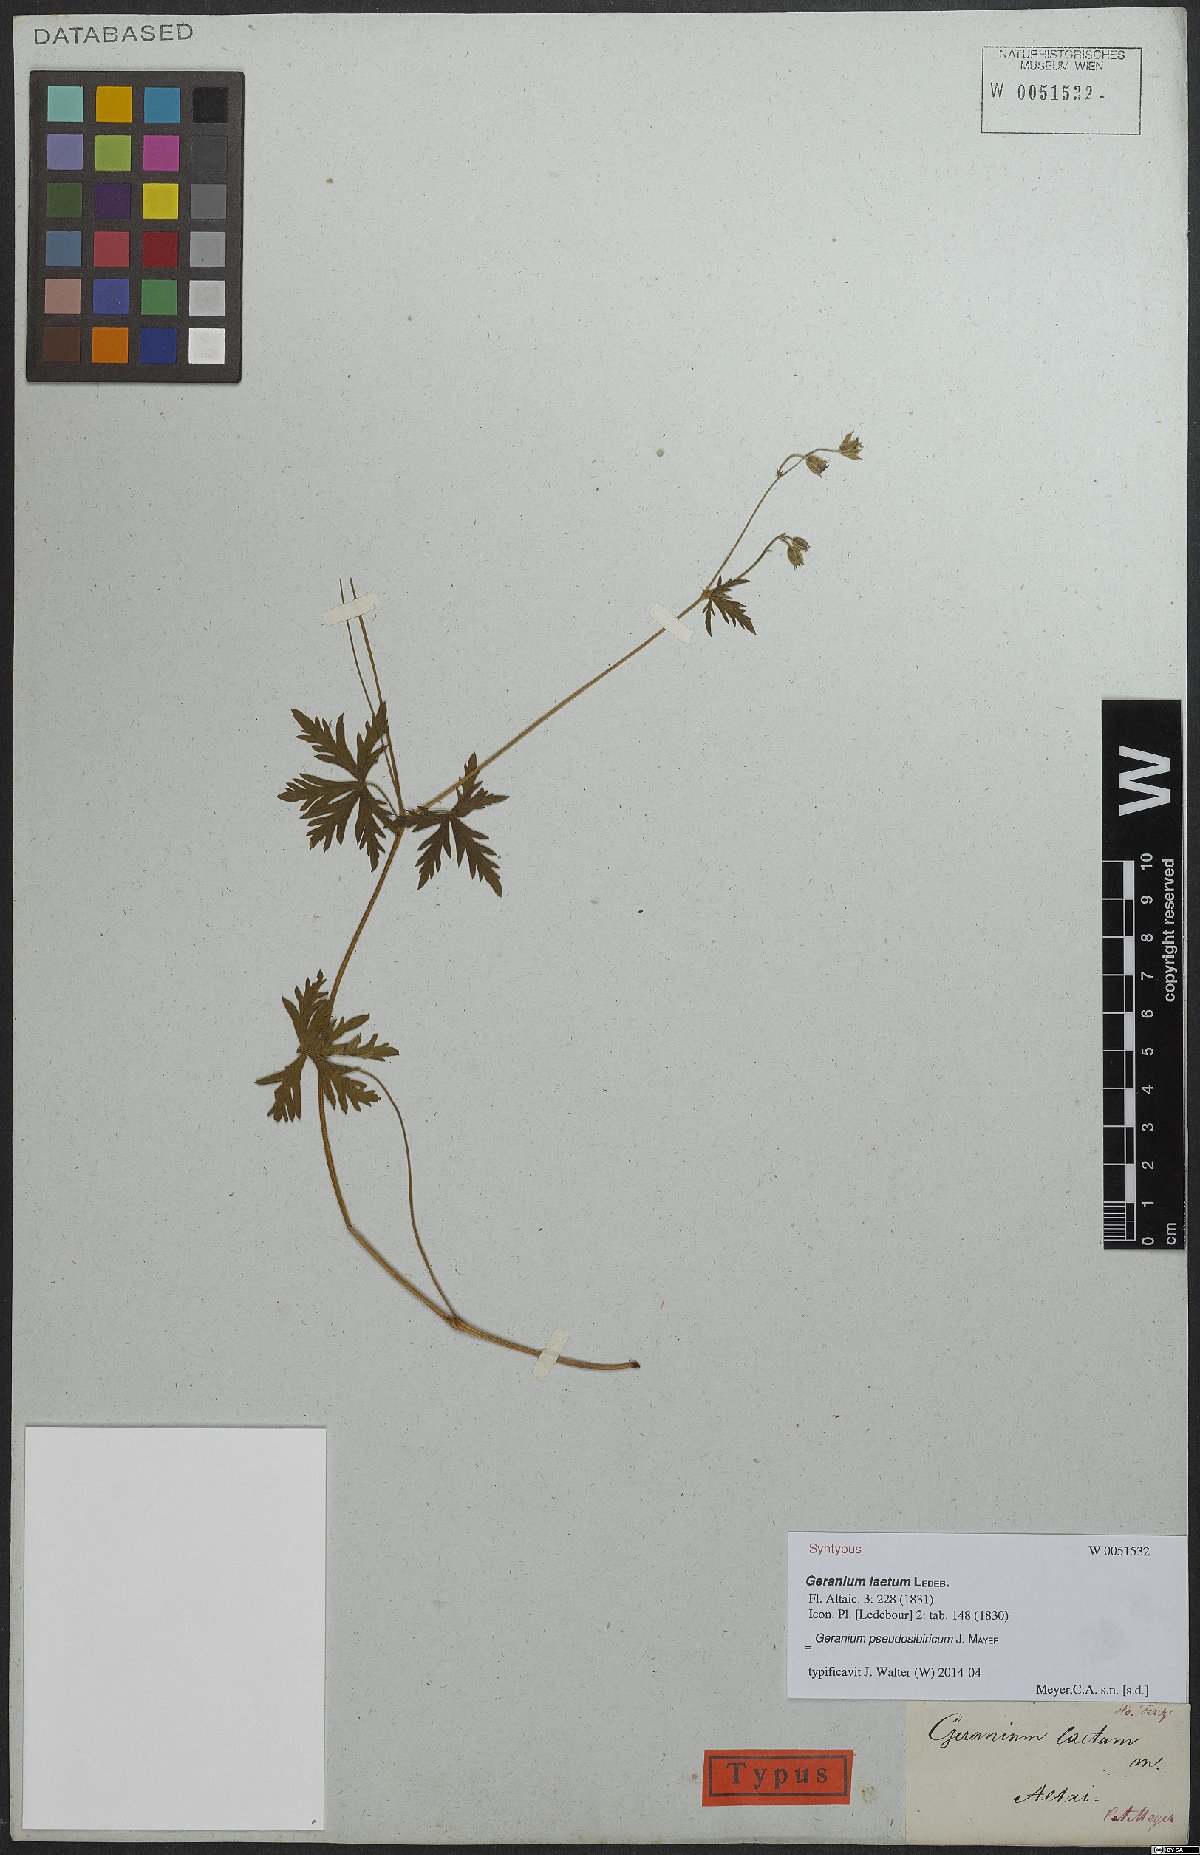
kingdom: Plantae
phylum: Tracheophyta
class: Magnoliopsida
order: Geraniales
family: Geraniaceae
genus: Geranium
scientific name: Geranium pseudosibiricum
